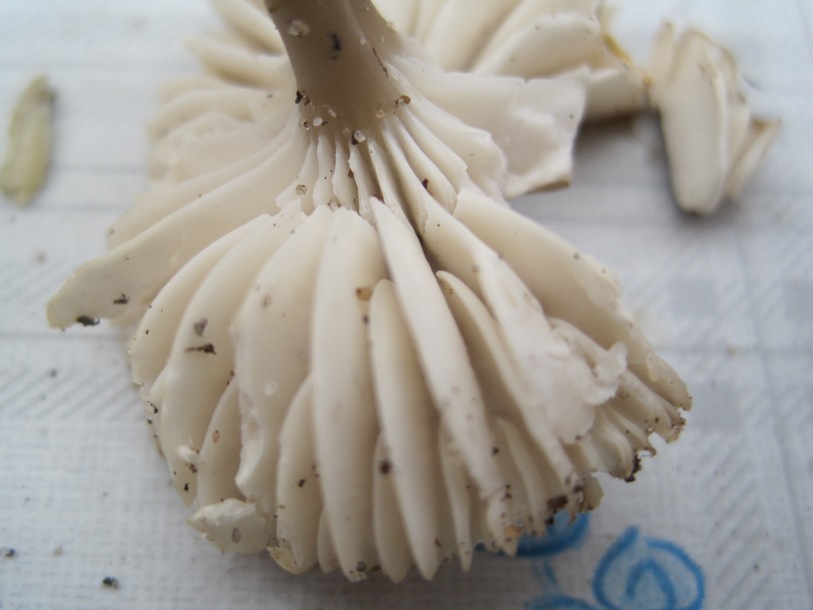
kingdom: Fungi
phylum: Basidiomycota
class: Agaricomycetes
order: Agaricales
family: Hygrophoraceae
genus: Gliophorus
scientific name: Gliophorus irrigatus
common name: slimet vokshat
